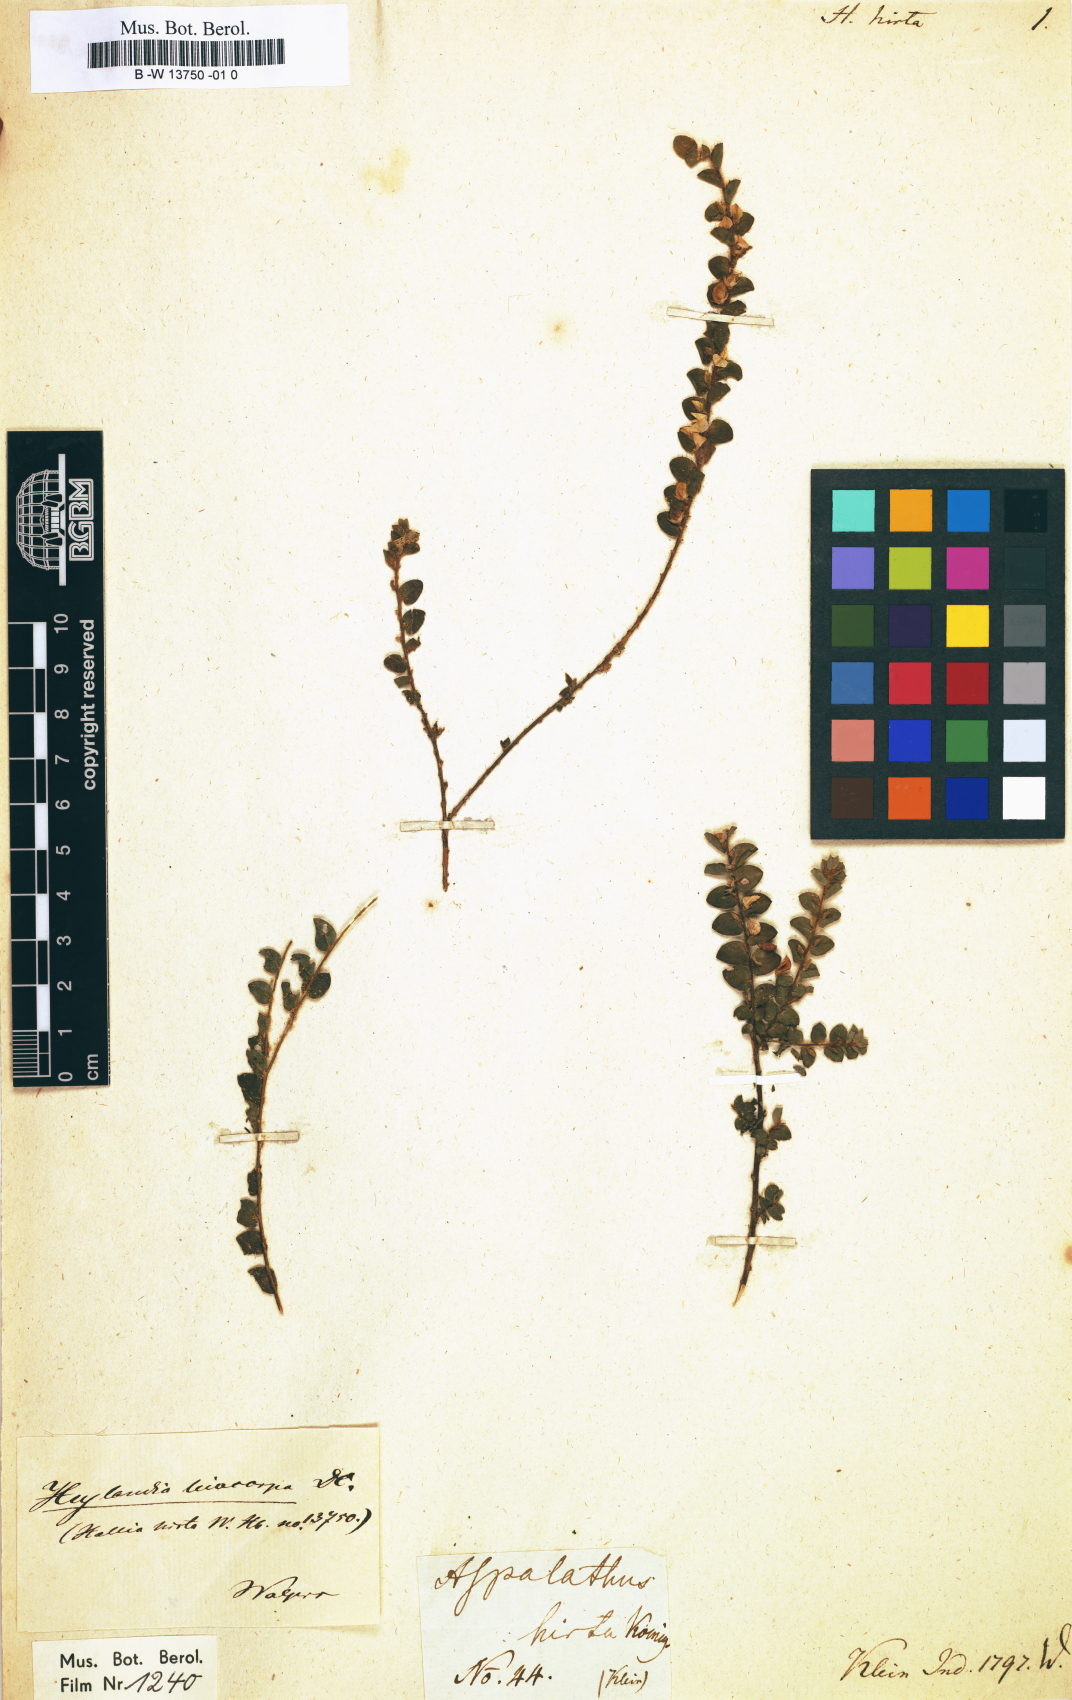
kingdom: Plantae
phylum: Tracheophyta
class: Magnoliopsida
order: Fabales
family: Fabaceae
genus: Crotalaria
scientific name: Crotalaria hebecarpa
